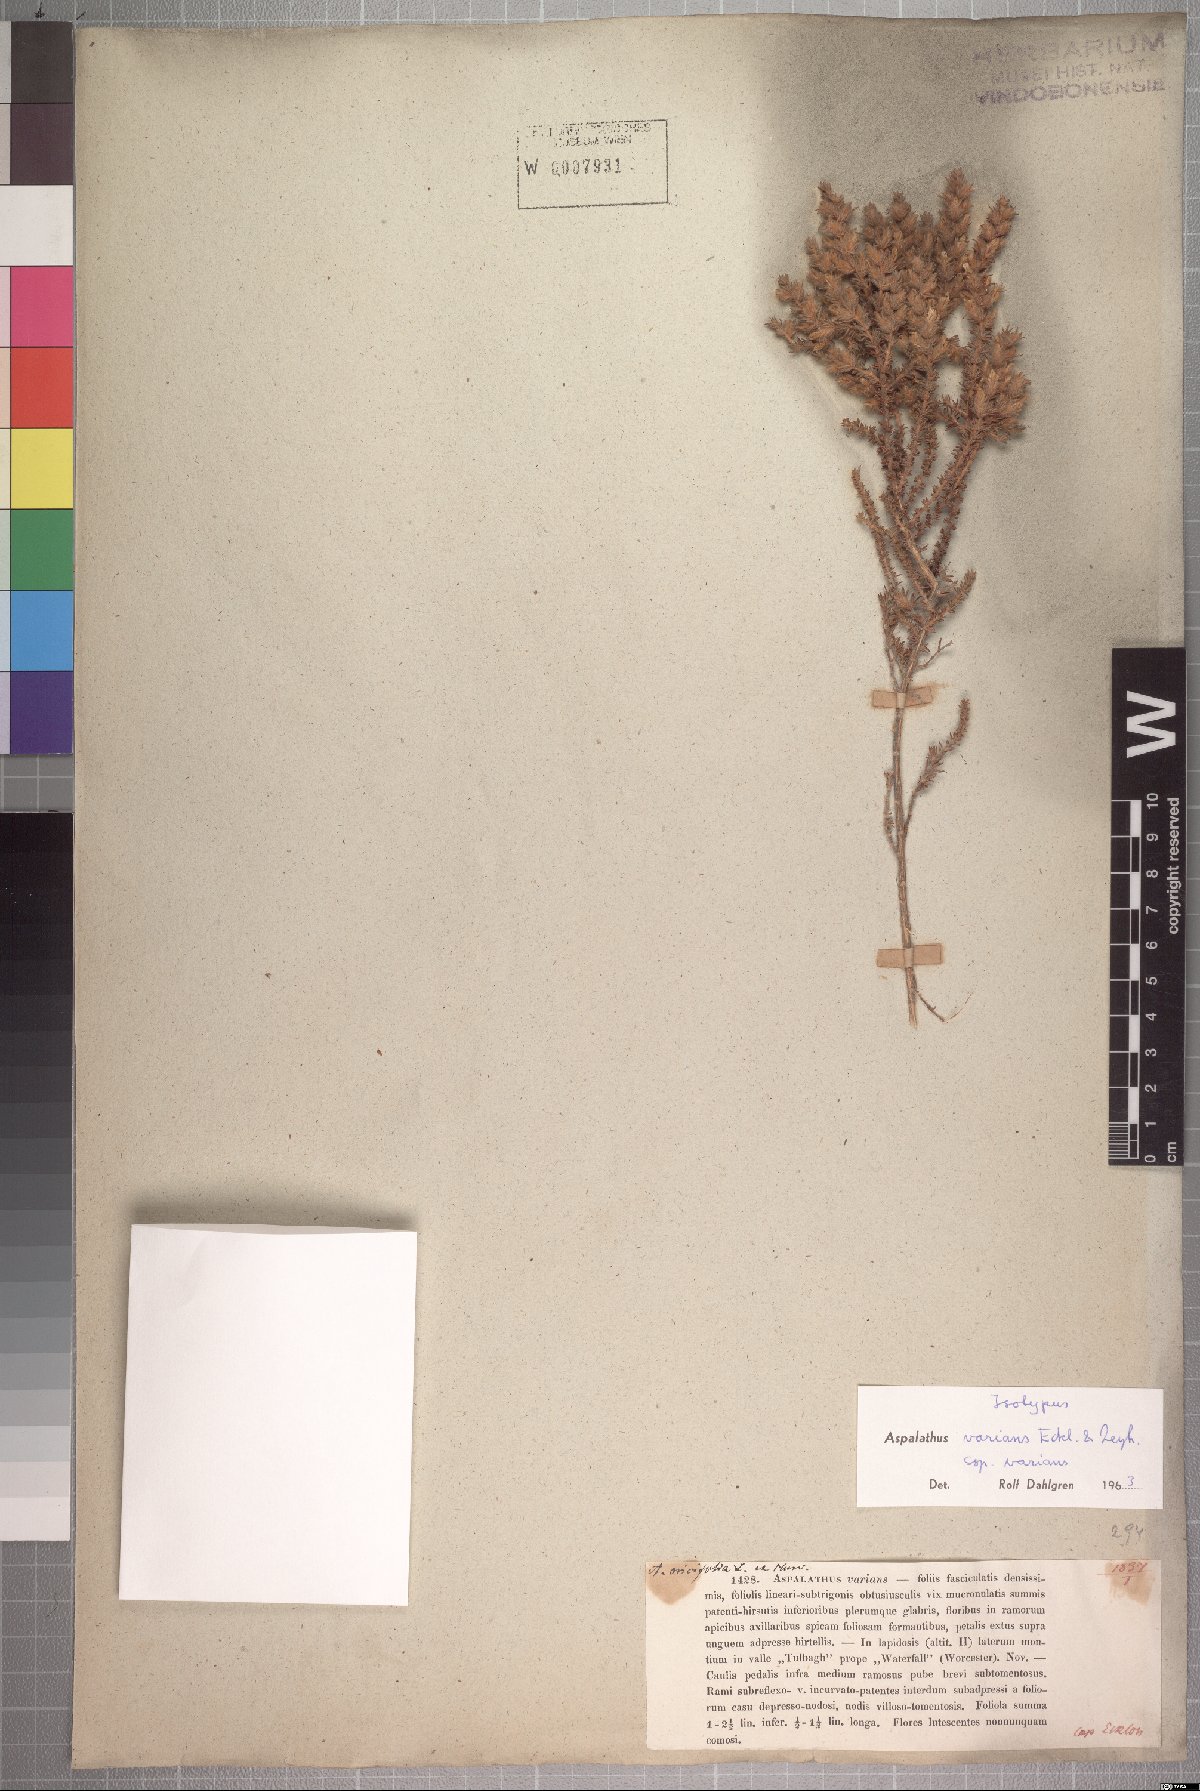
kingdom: Plantae
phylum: Tracheophyta
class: Magnoliopsida
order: Fabales
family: Fabaceae
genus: Aspalathus
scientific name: Aspalathus varians
